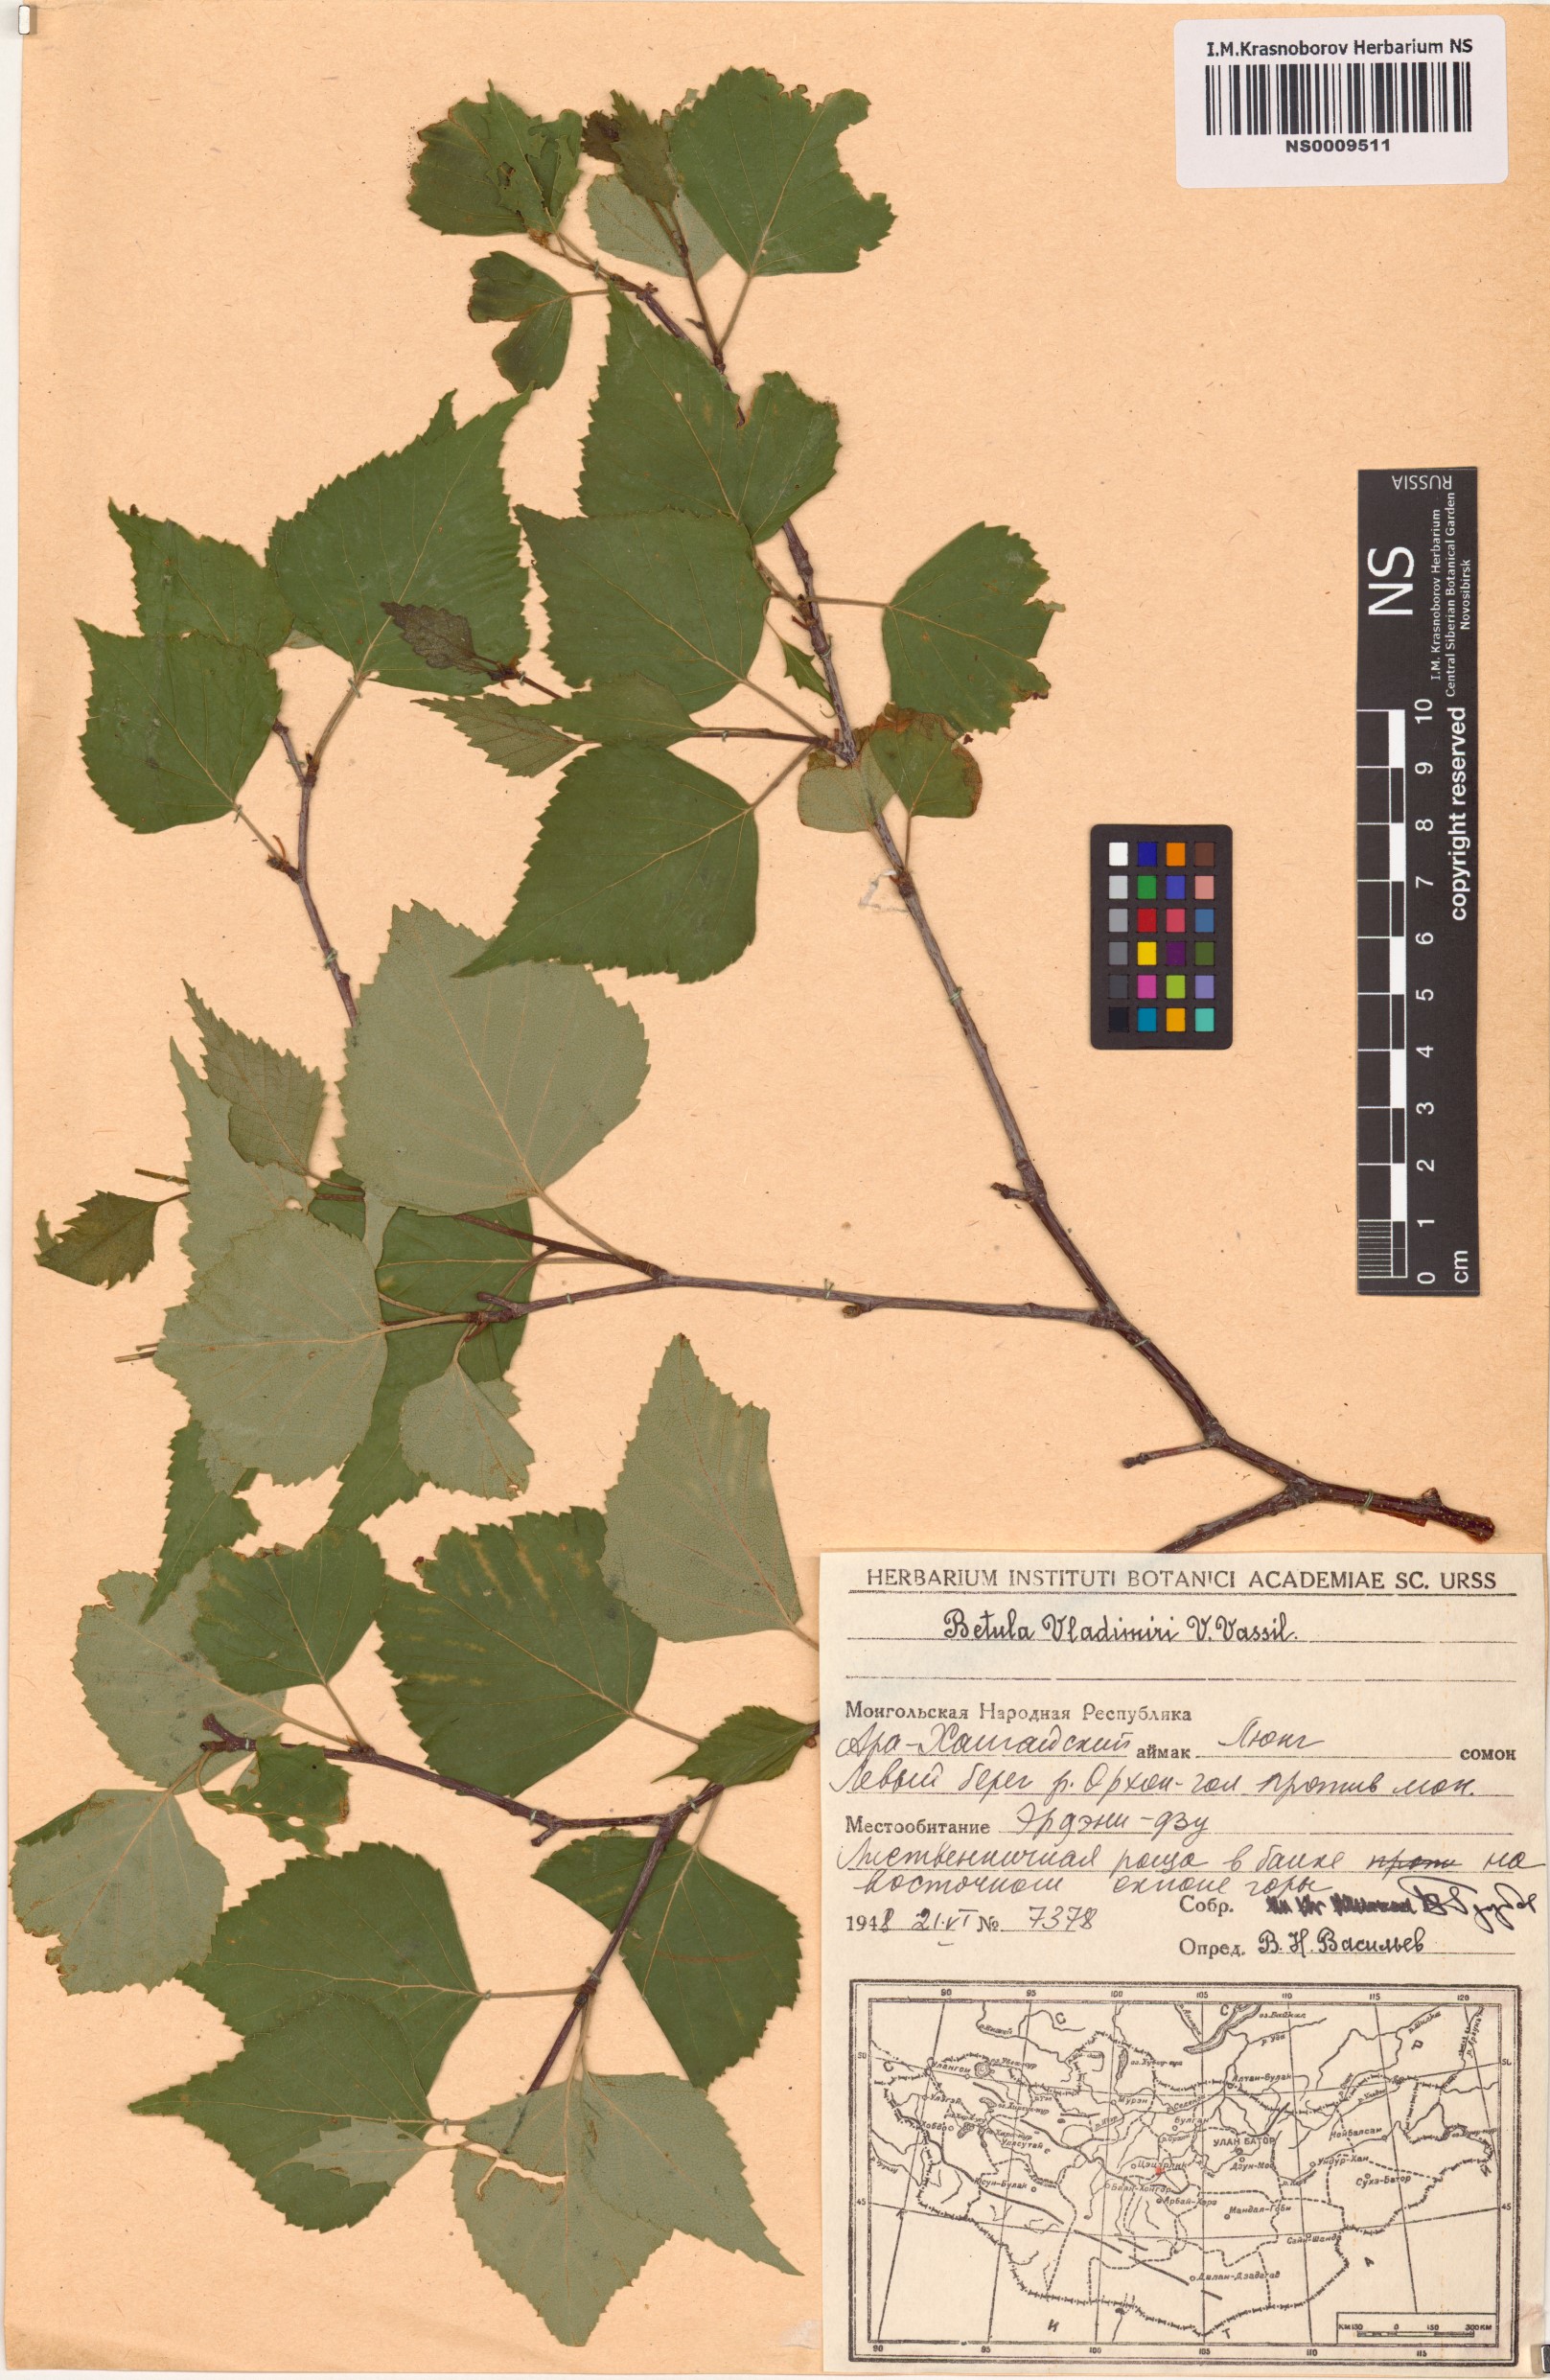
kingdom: Plantae
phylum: Tracheophyta
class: Magnoliopsida
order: Fagales
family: Betulaceae
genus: Betula
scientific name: Betula pendula
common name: Silver birch
